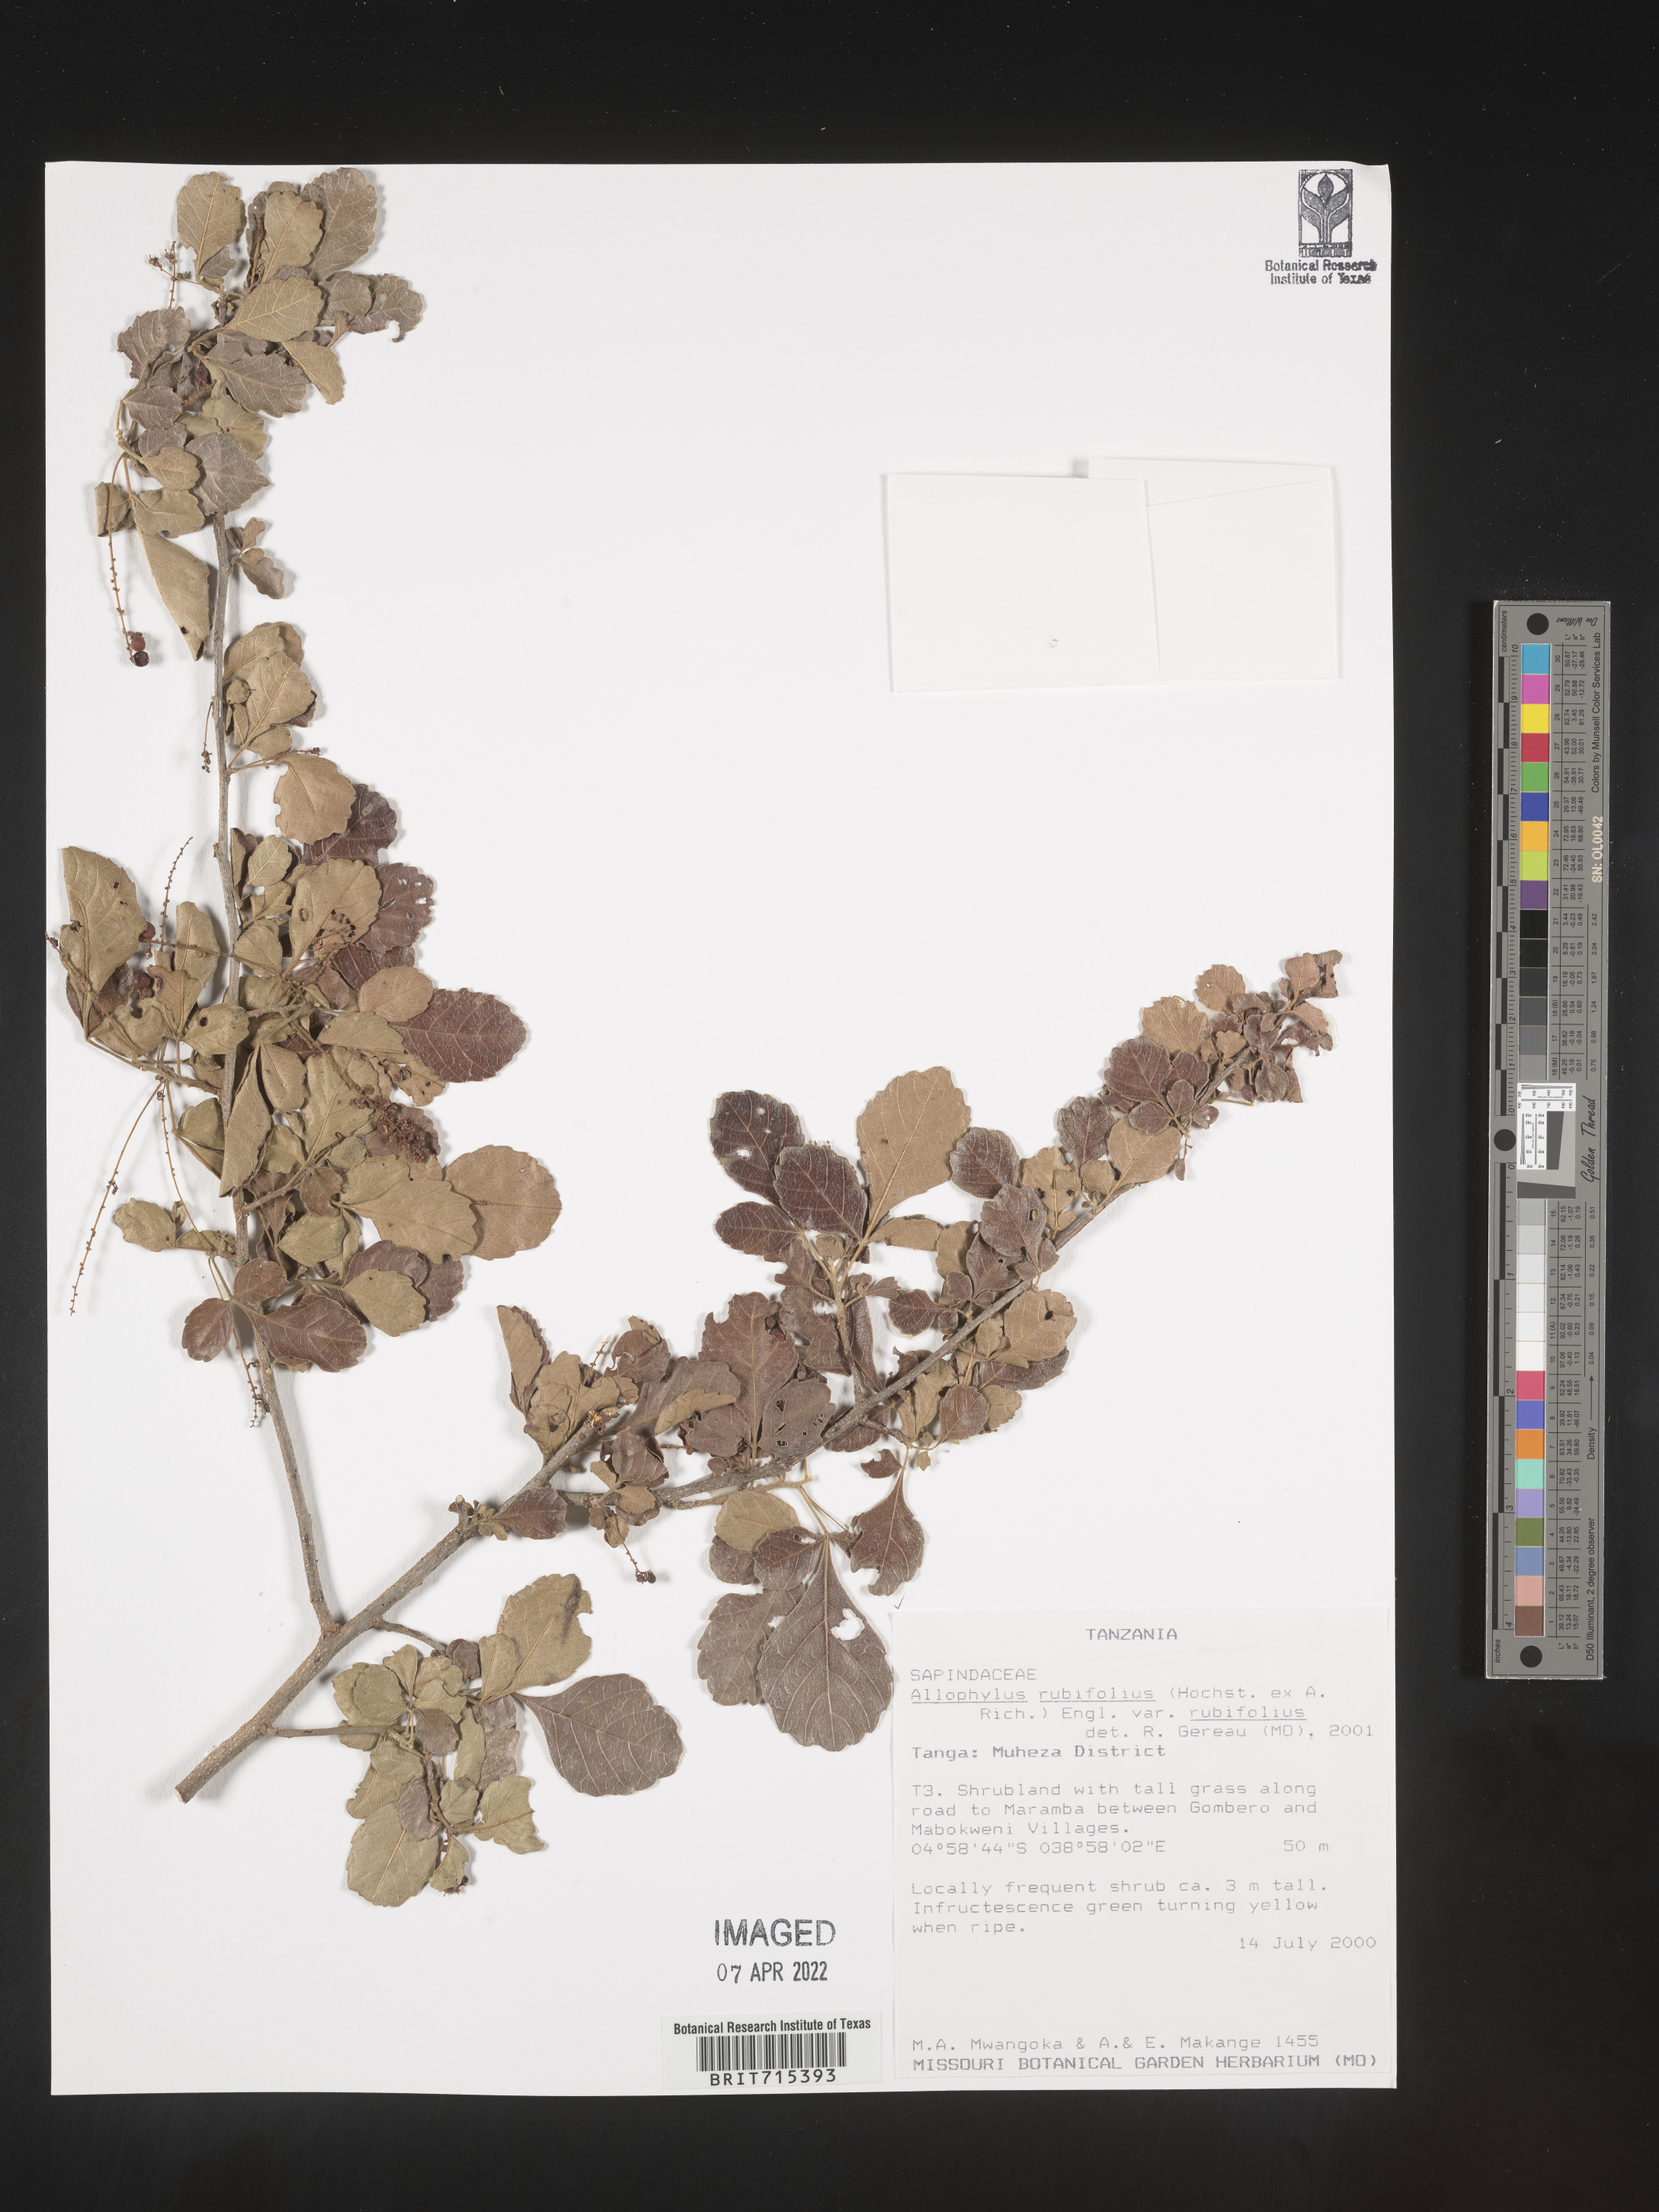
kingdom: Plantae
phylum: Tracheophyta
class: Magnoliopsida
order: Sapindales
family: Sapindaceae
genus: Allophylus
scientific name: Allophylus fulvotomentosus
